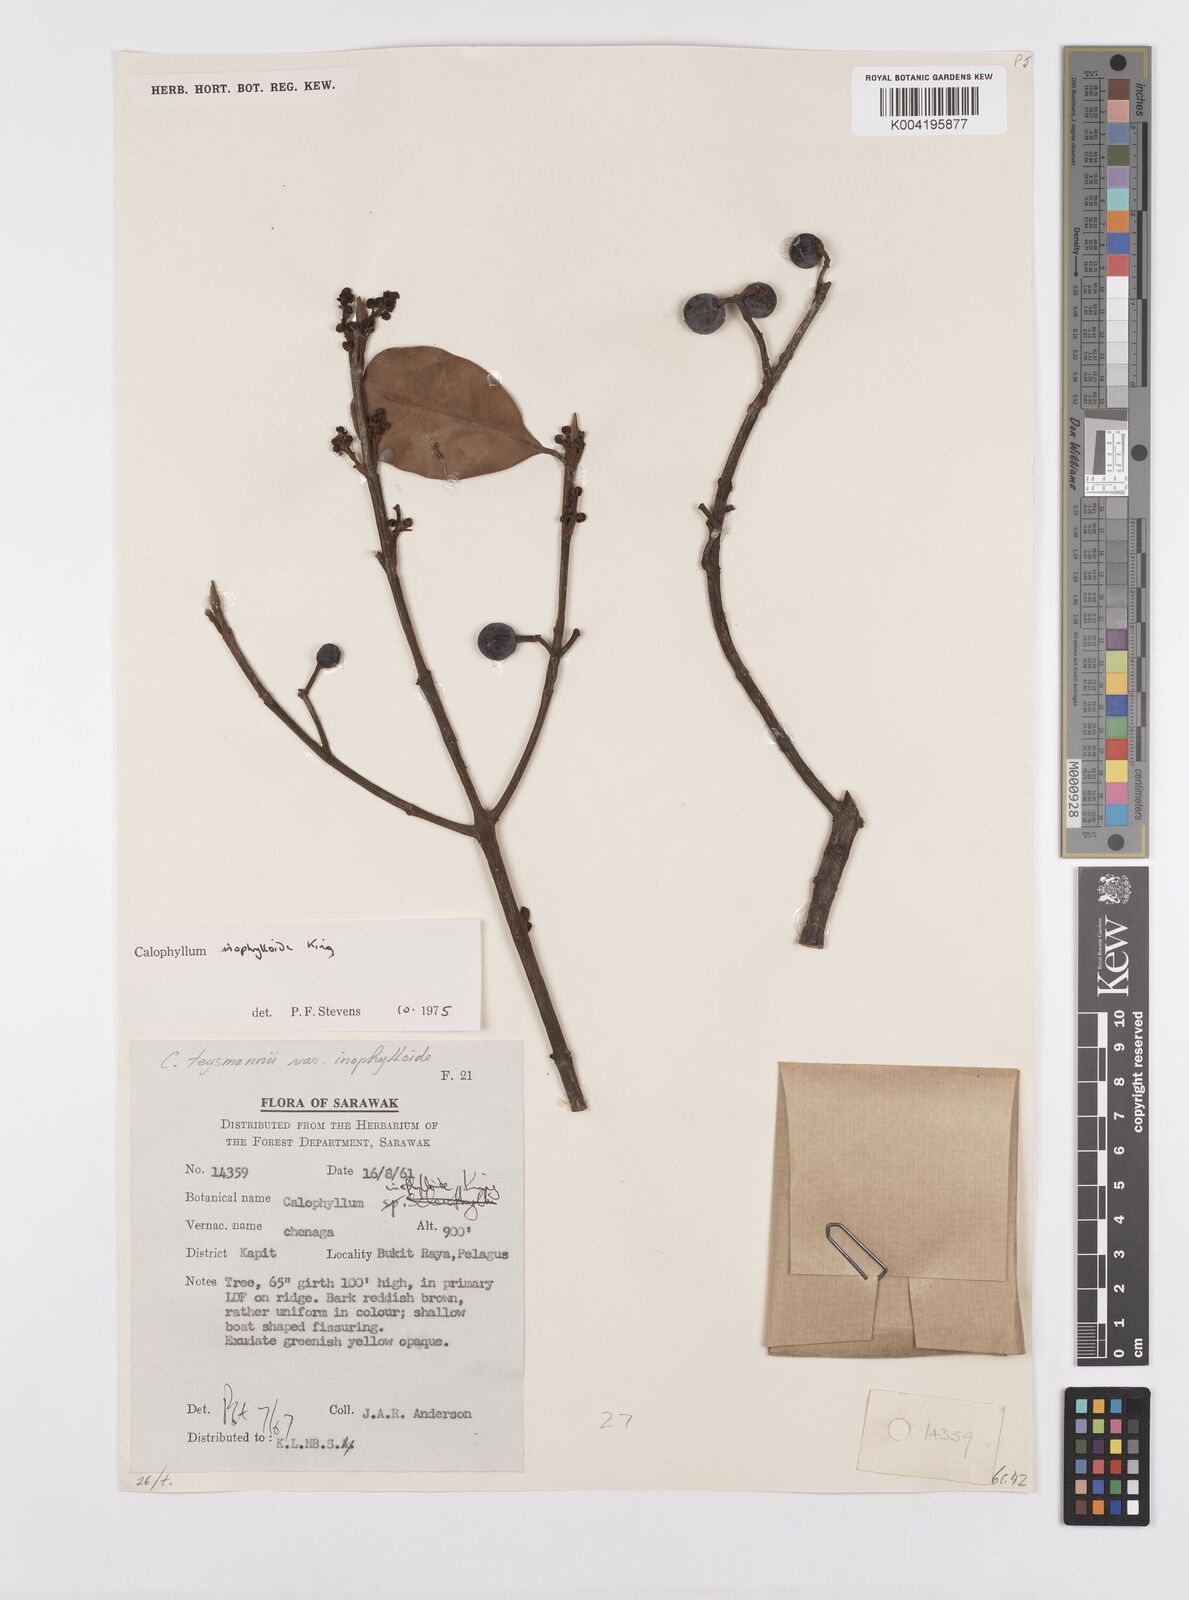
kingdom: Plantae
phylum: Tracheophyta
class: Magnoliopsida
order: Malpighiales
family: Calophyllaceae
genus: Calophyllum
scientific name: Calophyllum teysmannii
